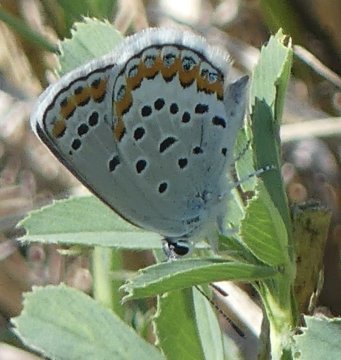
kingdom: Animalia
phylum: Arthropoda
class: Insecta
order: Lepidoptera
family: Lycaenidae
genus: Lycaeides
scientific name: Lycaeides melissa
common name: Melissa Blue
